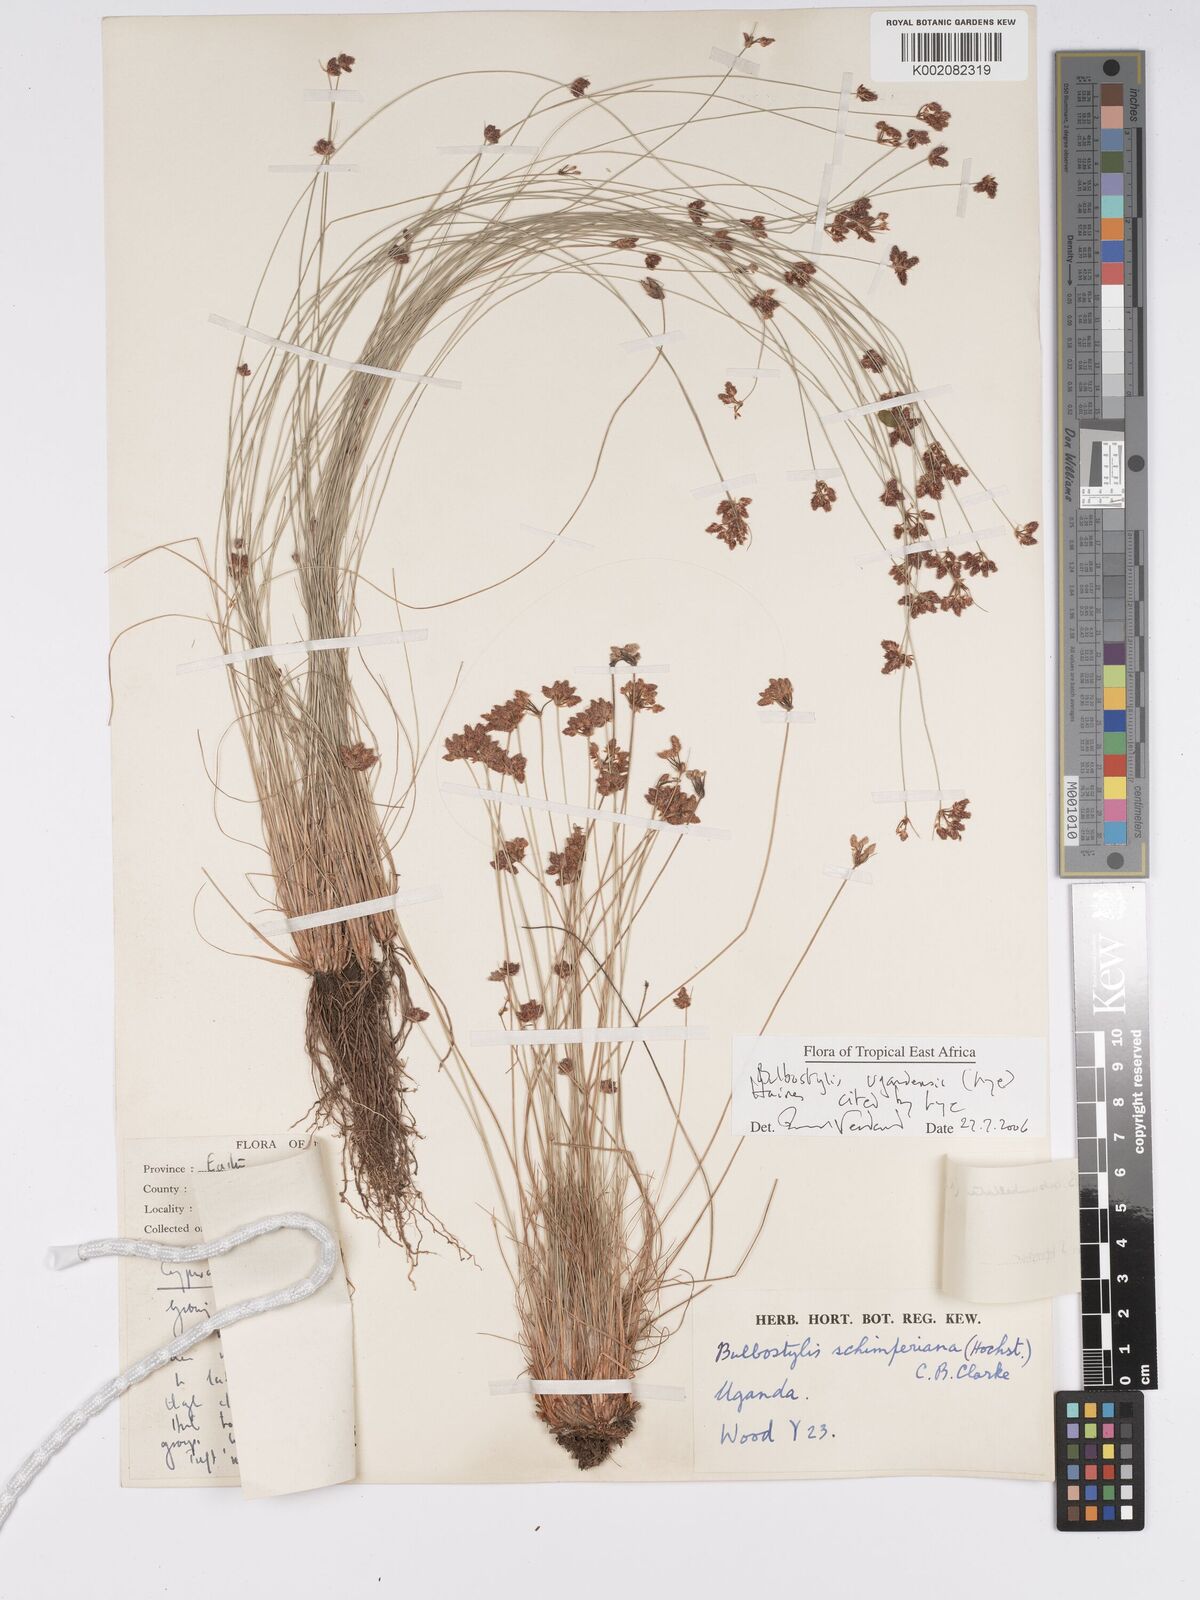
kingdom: Plantae
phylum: Tracheophyta
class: Liliopsida
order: Poales
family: Cyperaceae
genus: Bulbostylis
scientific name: Bulbostylis ugandensis
